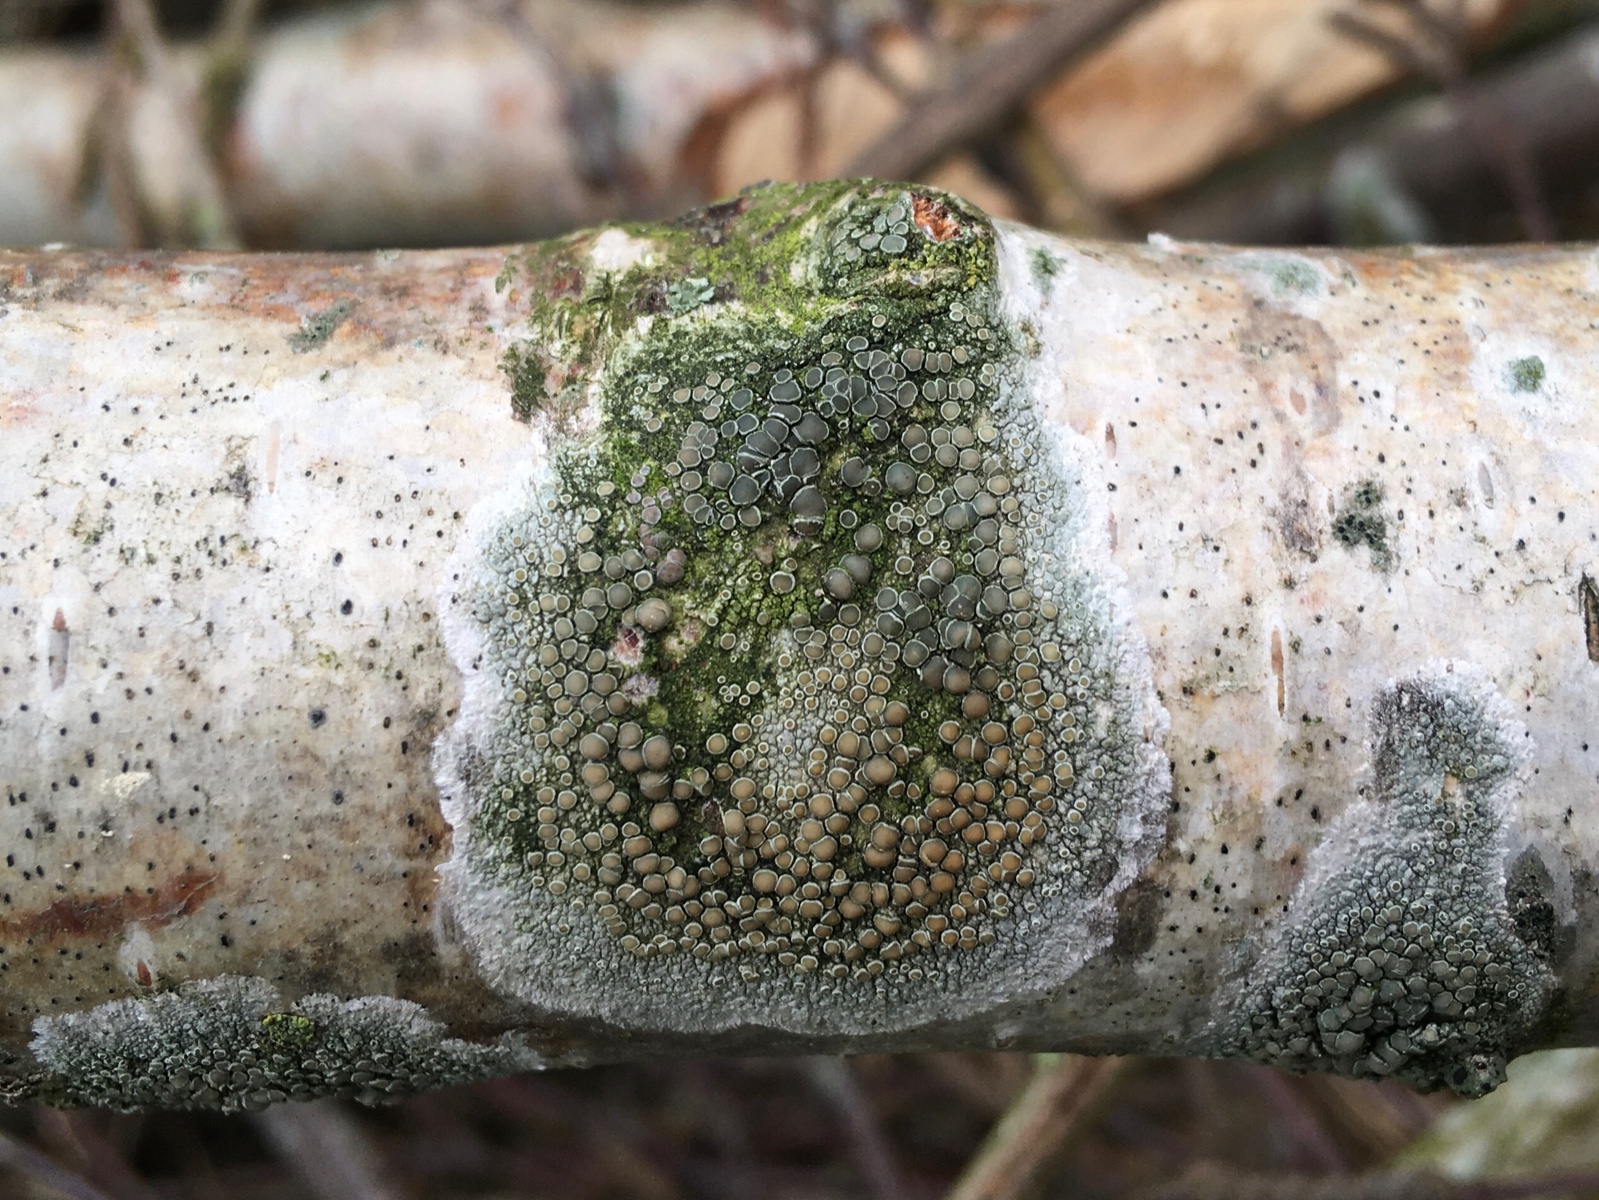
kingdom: Fungi
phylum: Ascomycota
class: Lecanoromycetes
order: Lecanorales
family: Lecanoraceae
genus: Lecanora
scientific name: Lecanora chlarotera
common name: brun kantskivelav
